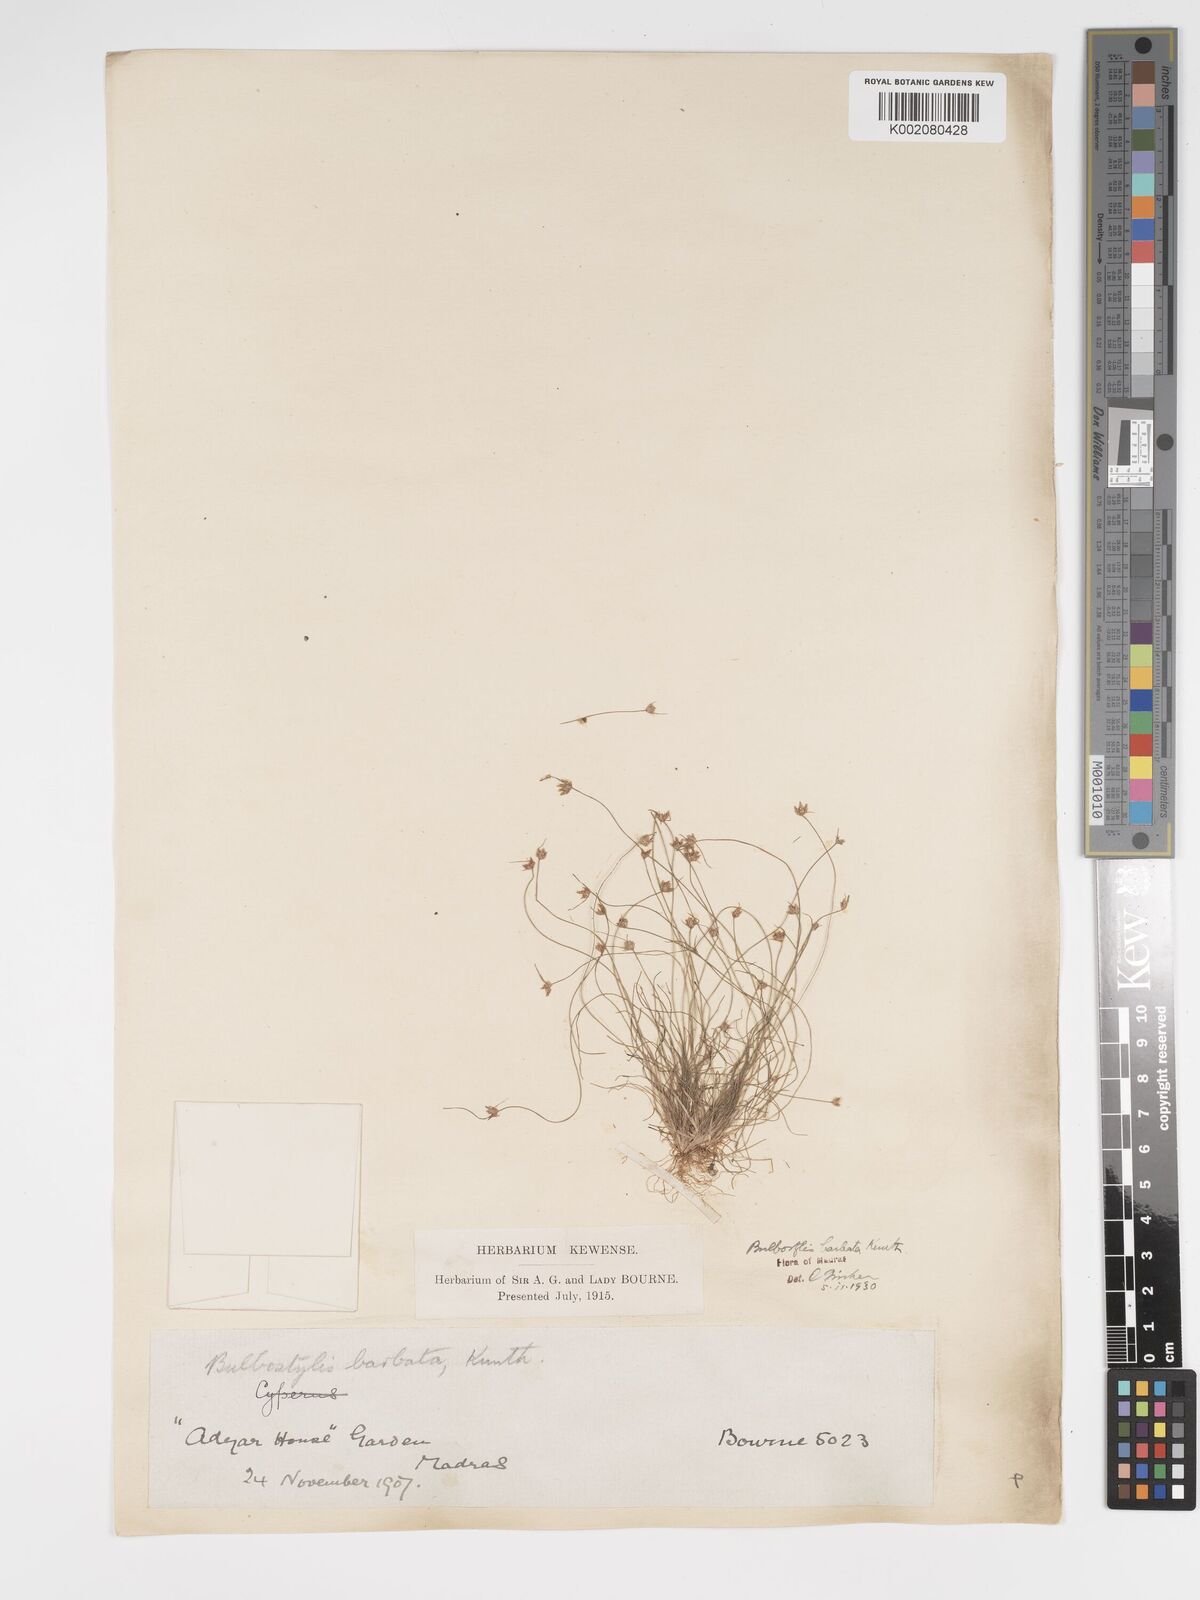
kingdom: Plantae
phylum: Tracheophyta
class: Liliopsida
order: Poales
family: Cyperaceae
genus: Bulbostylis
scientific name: Bulbostylis barbata
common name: Watergrass
